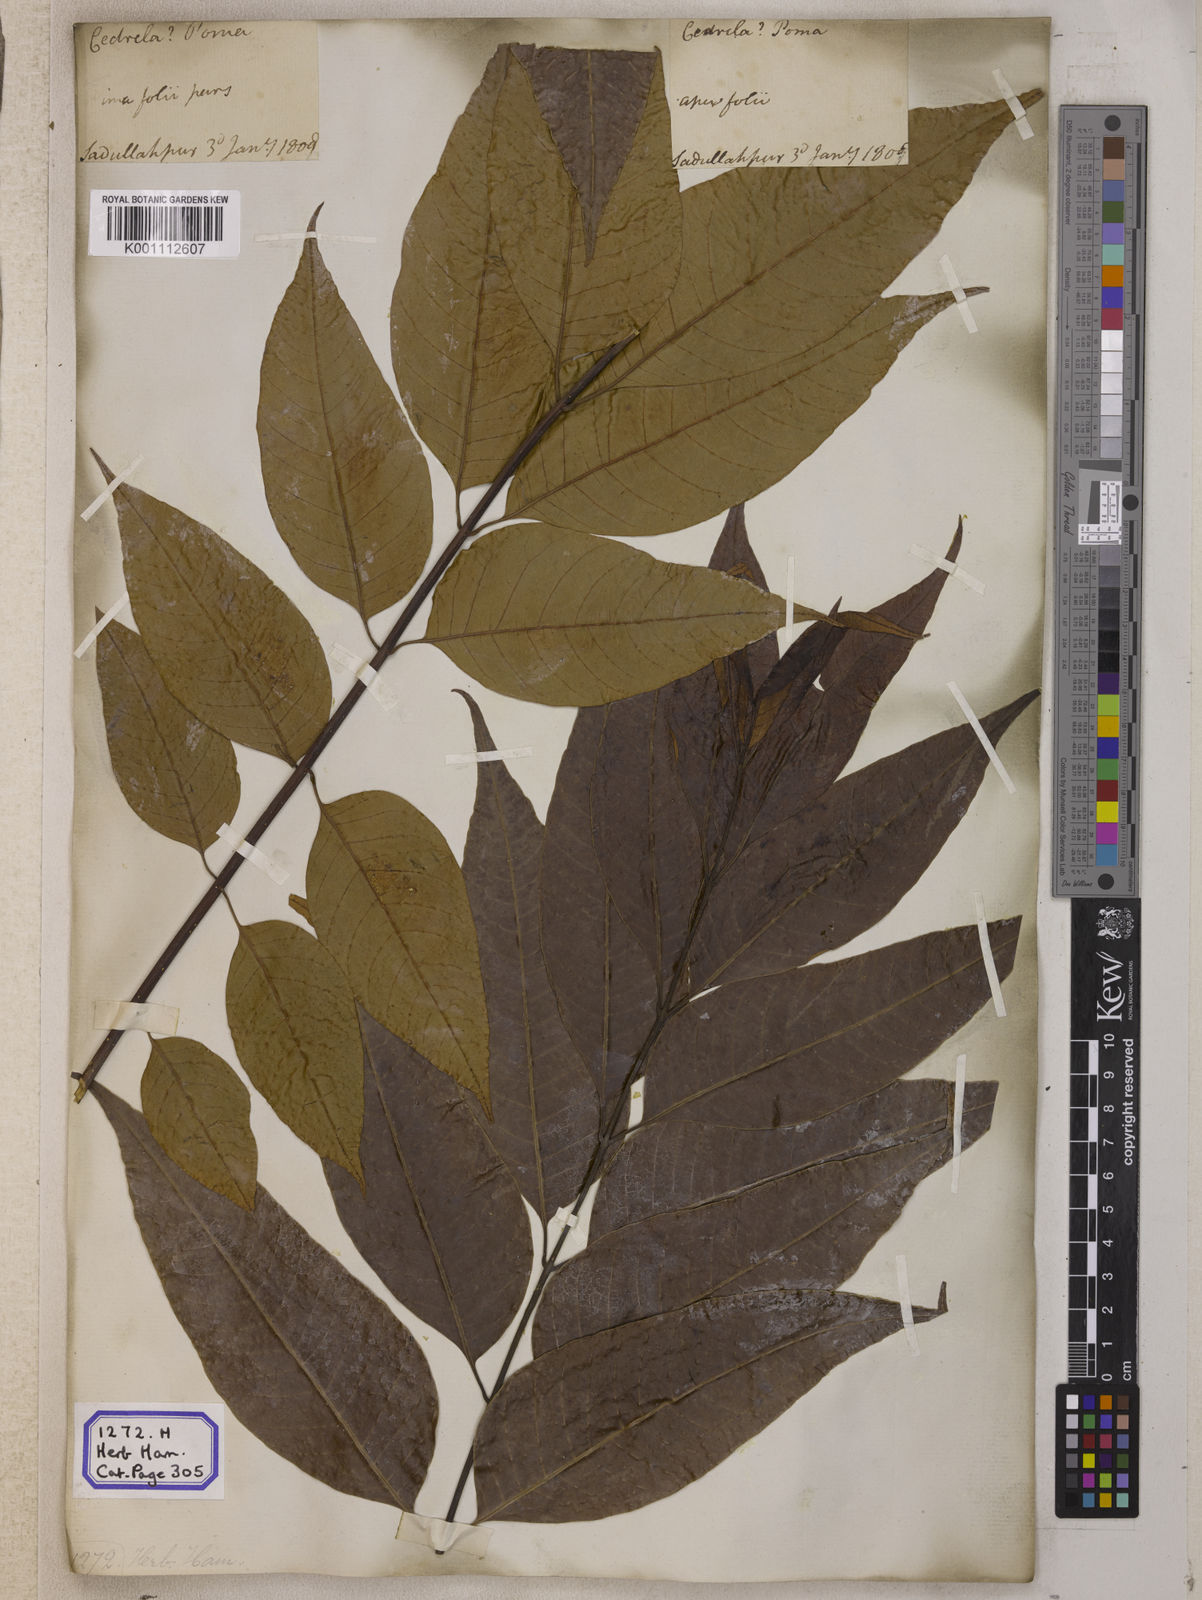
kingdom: Plantae
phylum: Tracheophyta
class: Magnoliopsida
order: Sapindales
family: Meliaceae
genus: Cedrela
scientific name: Cedrela
